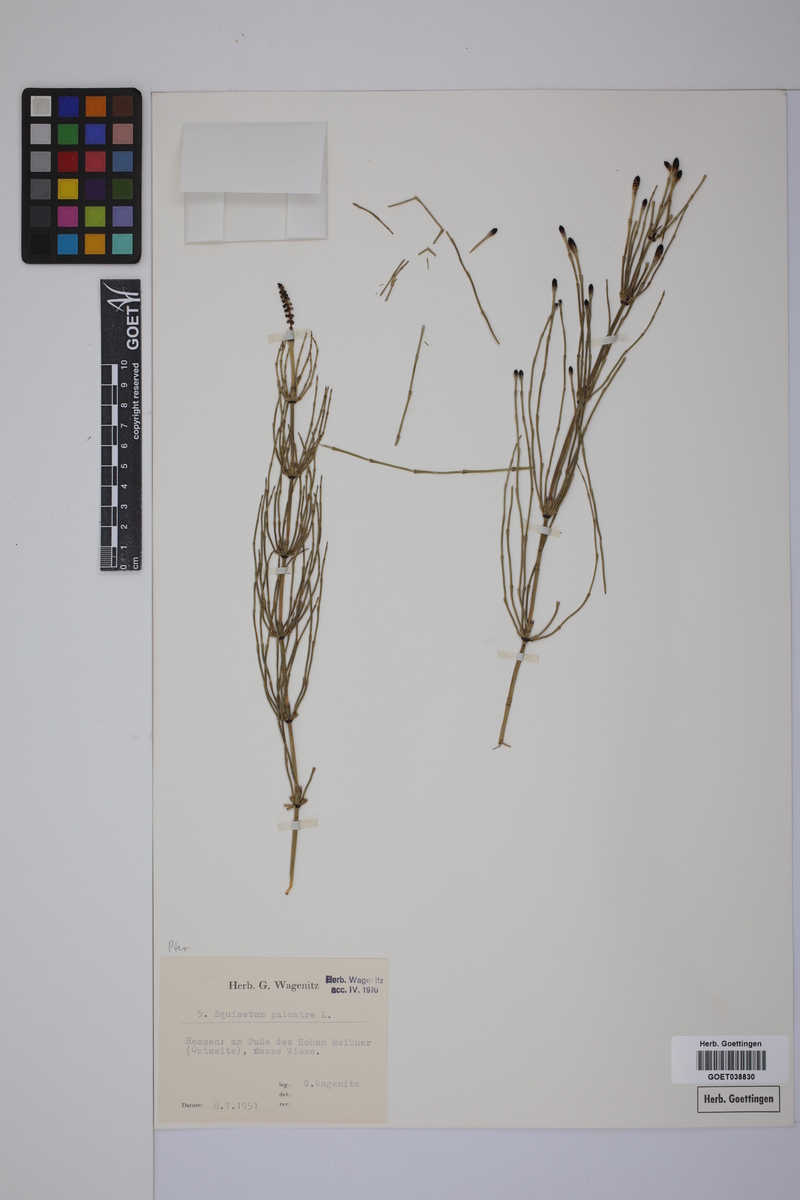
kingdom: Plantae
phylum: Tracheophyta
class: Polypodiopsida
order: Equisetales
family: Equisetaceae
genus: Equisetum
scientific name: Equisetum palustre
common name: Marsh horsetail
